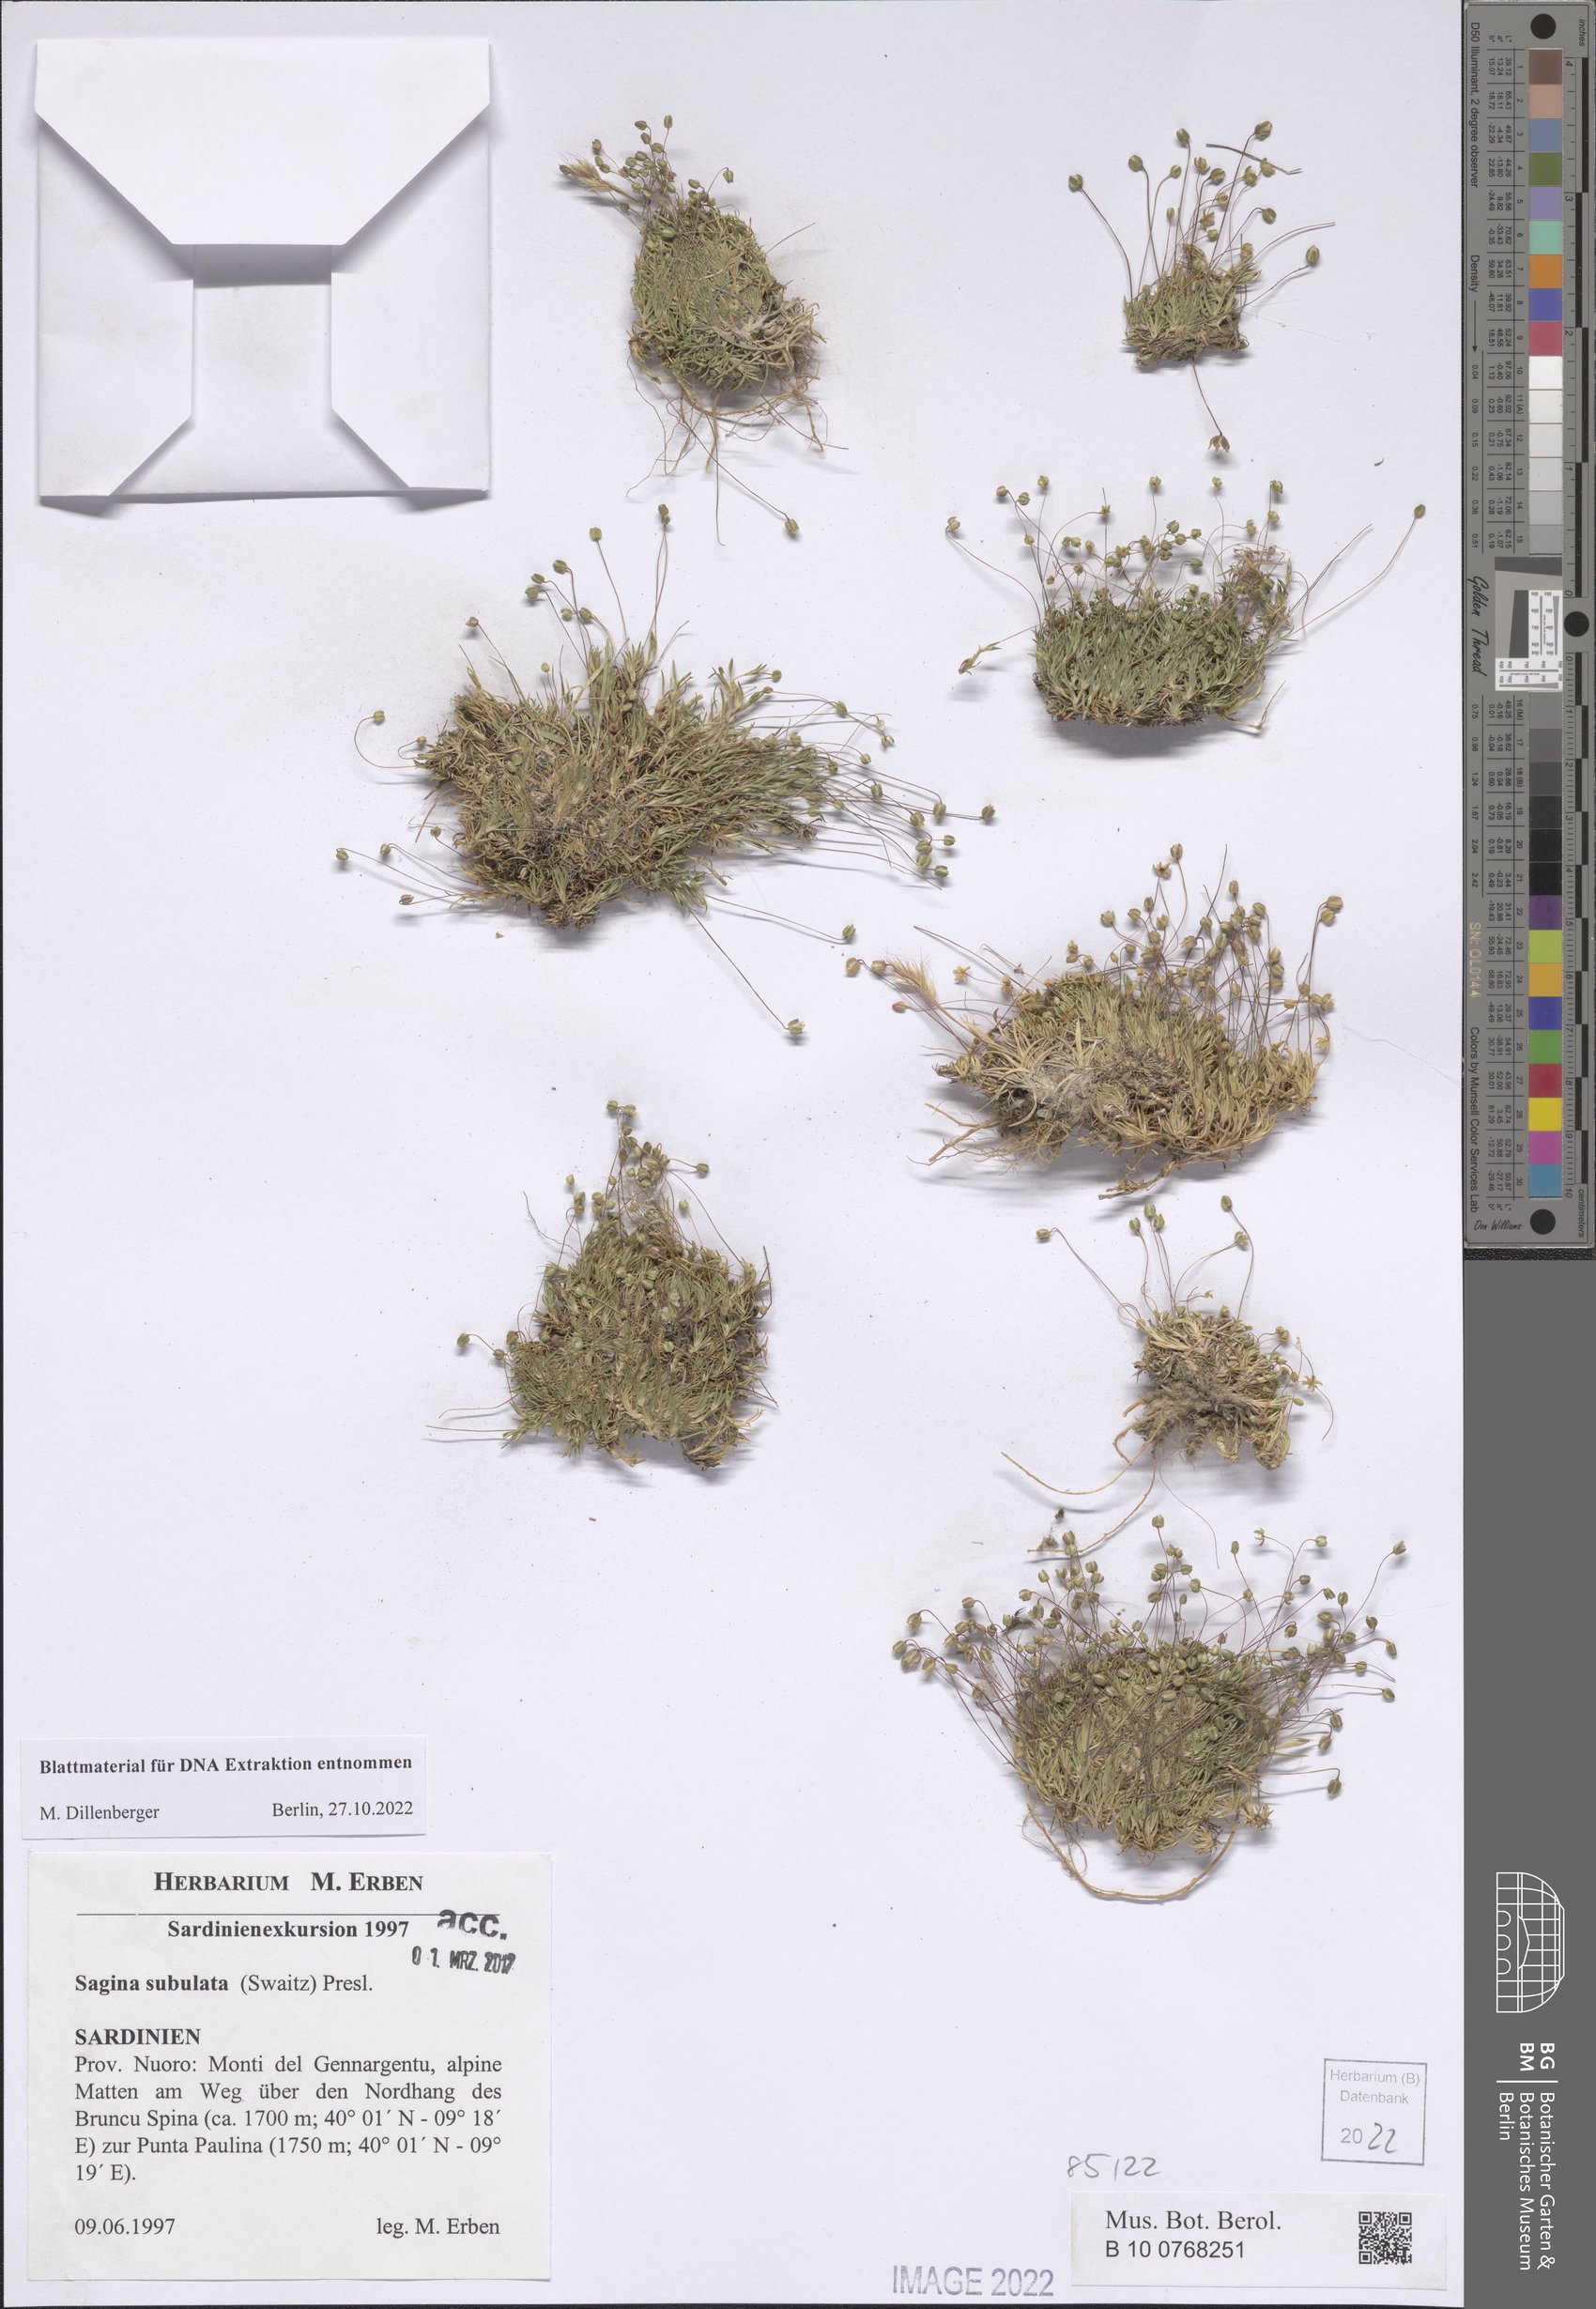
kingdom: Plantae
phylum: Tracheophyta
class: Magnoliopsida
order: Caryophyllales
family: Caryophyllaceae
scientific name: Caryophyllaceae
